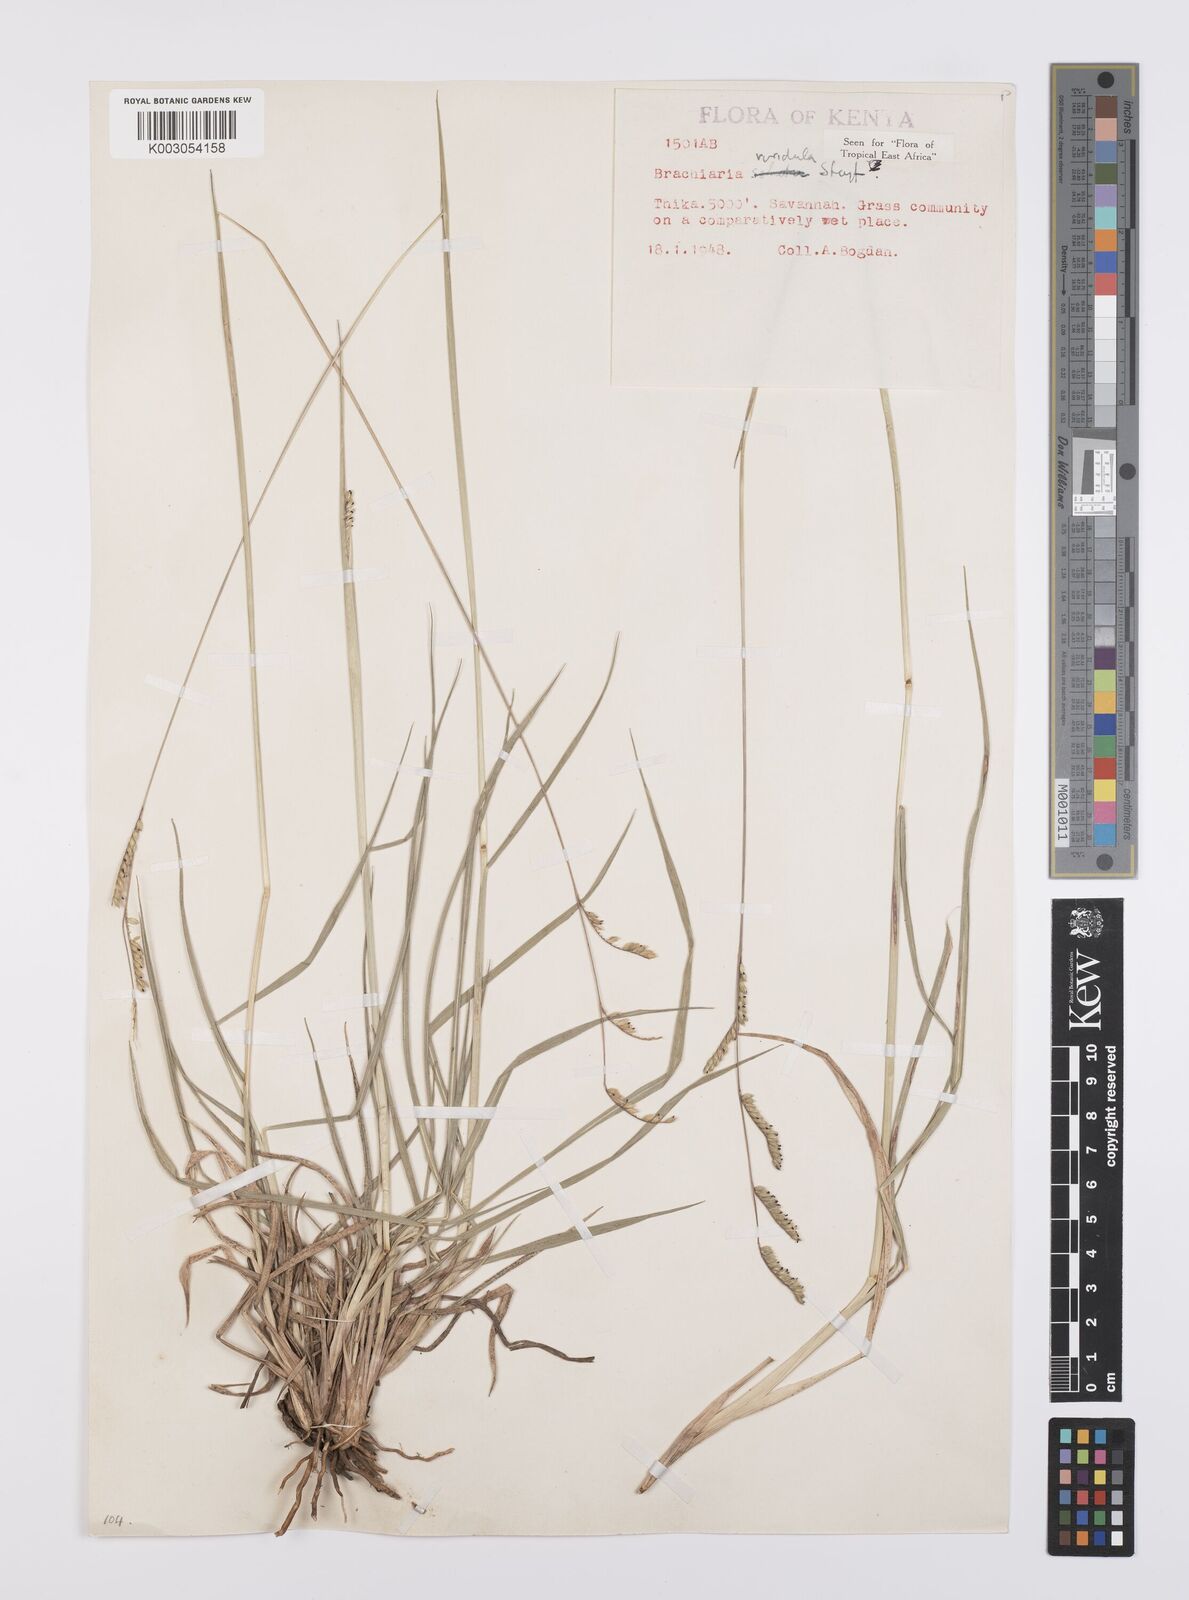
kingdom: Plantae
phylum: Tracheophyta
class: Liliopsida
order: Poales
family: Poaceae
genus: Urochloa
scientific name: Urochloa bovonei
